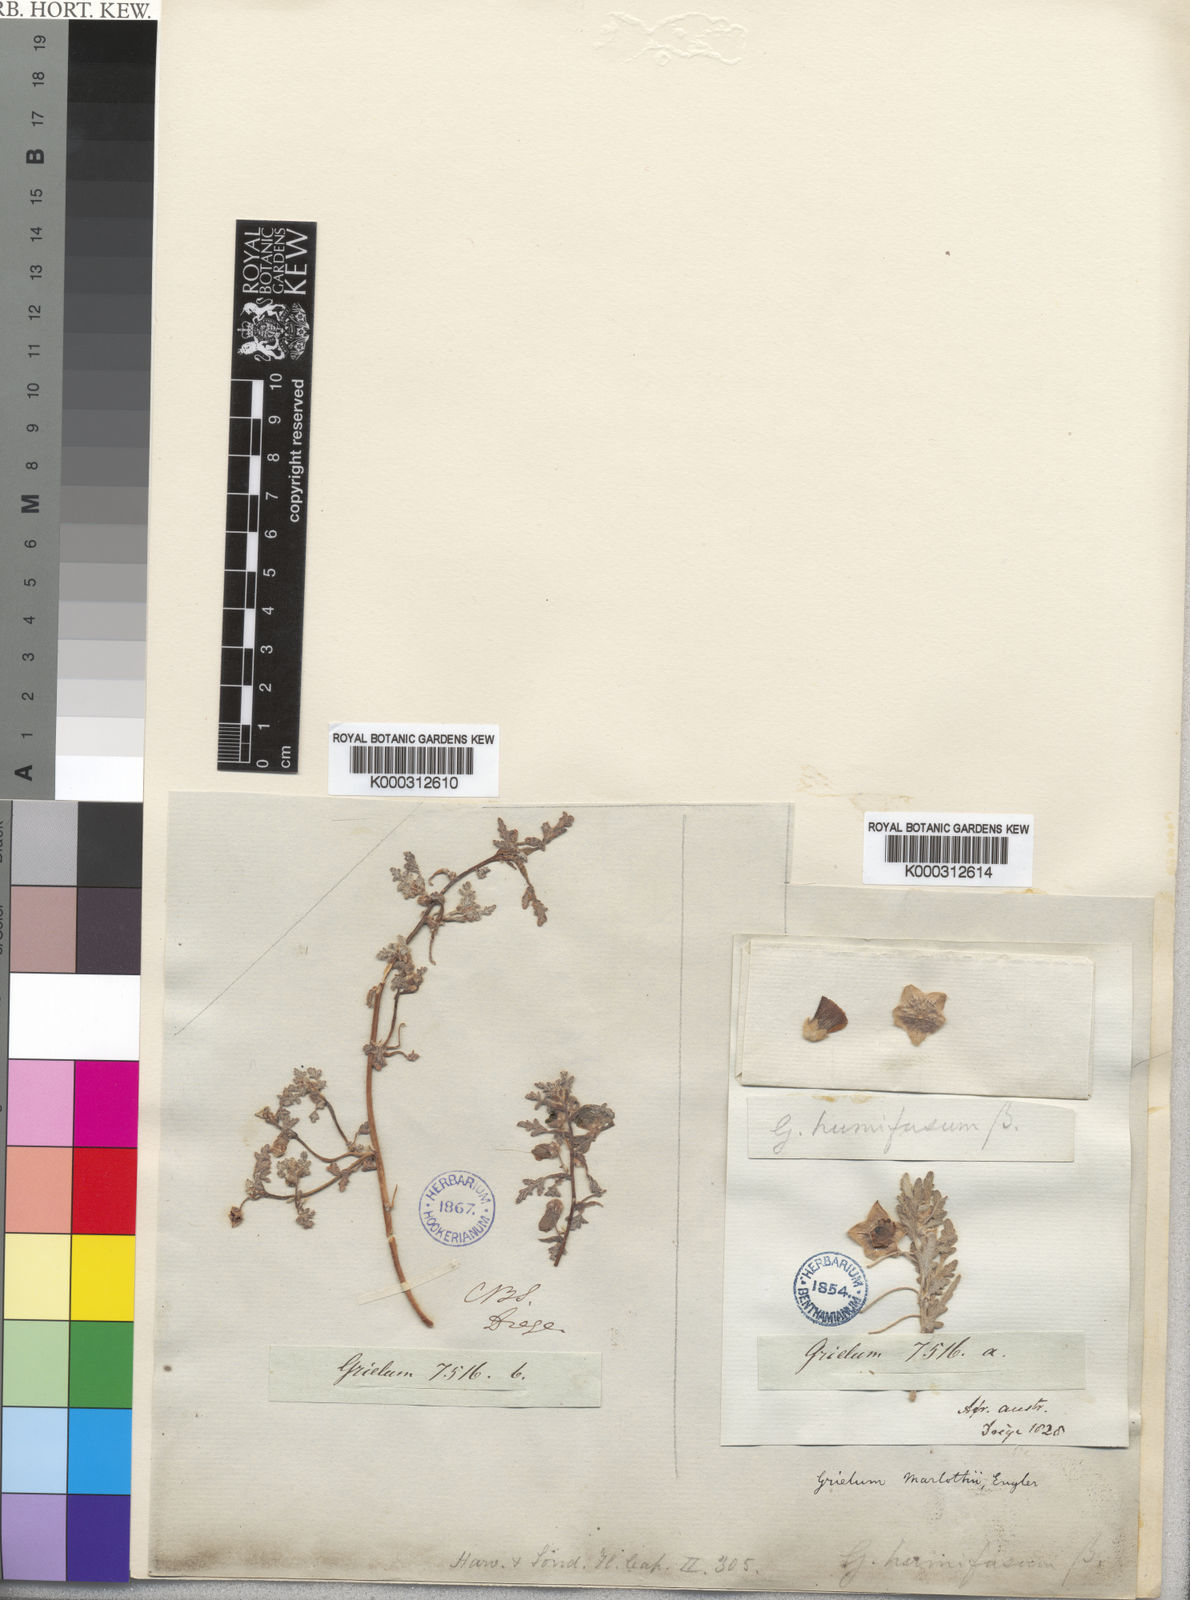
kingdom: Plantae
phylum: Tracheophyta
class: Magnoliopsida
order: Malvales
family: Neuradaceae
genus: Grielum
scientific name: Grielum sinuatum
